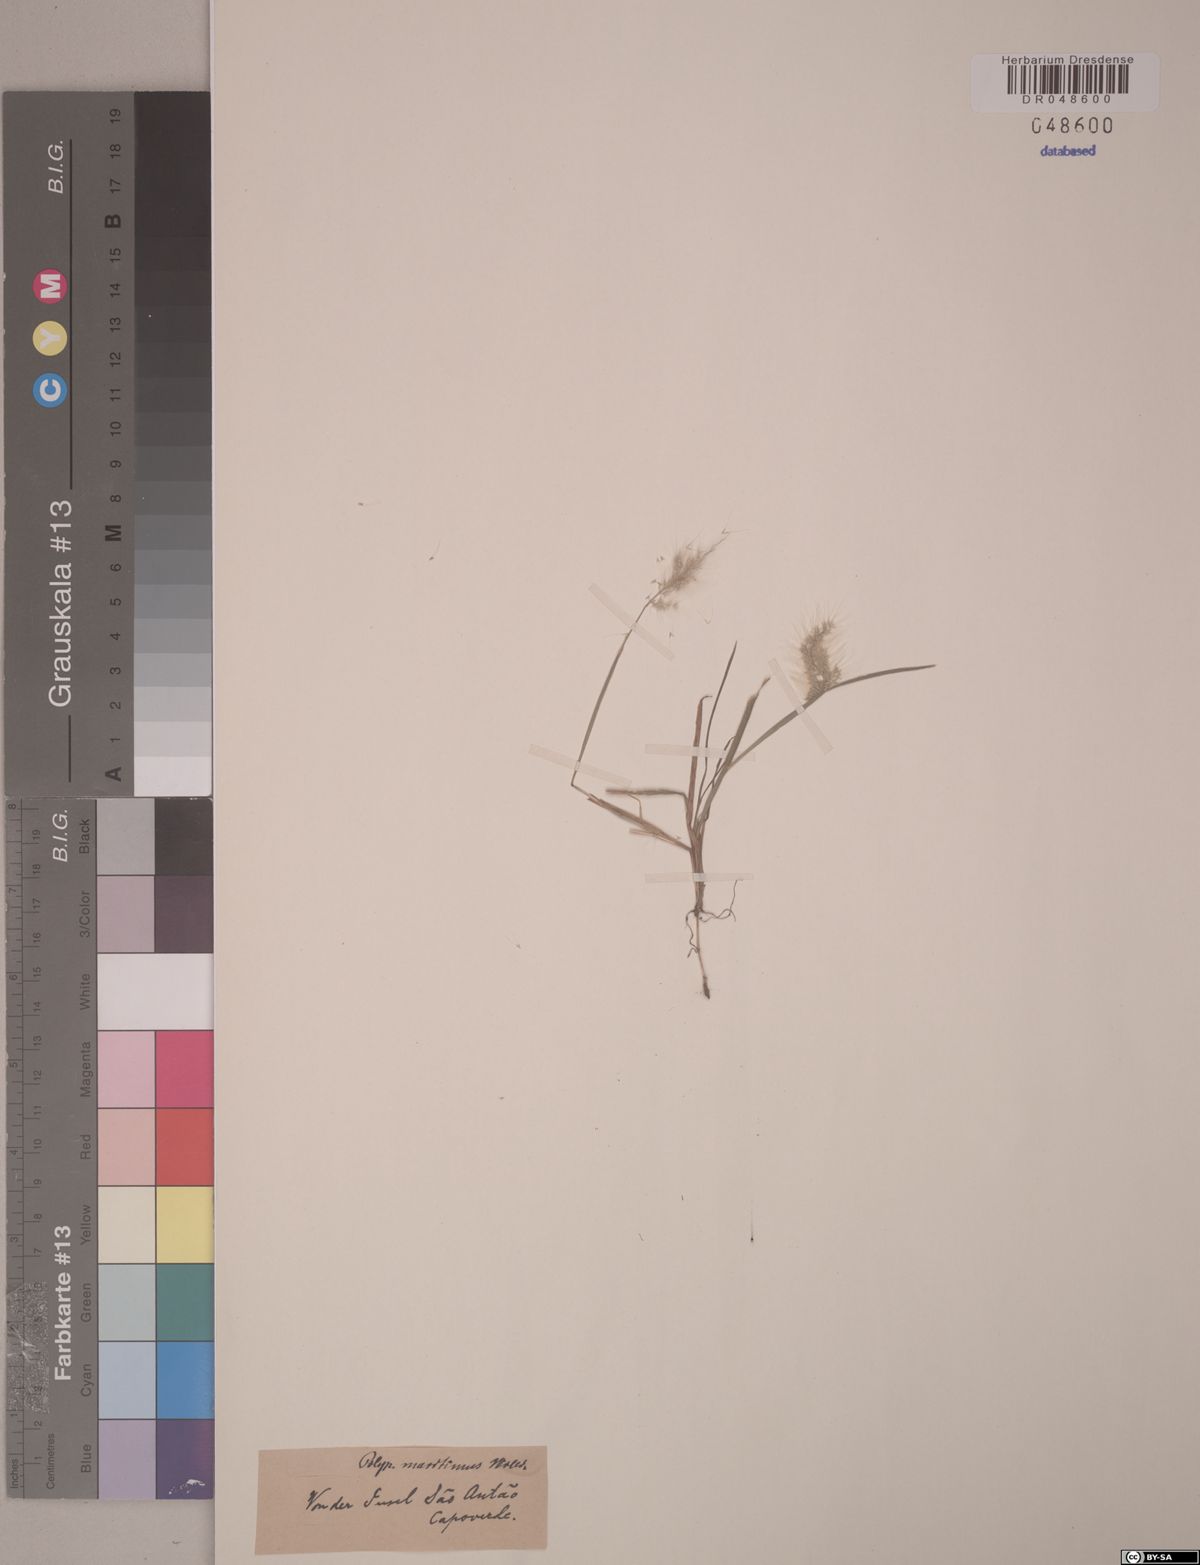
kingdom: Plantae
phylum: Tracheophyta
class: Liliopsida
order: Poales
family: Poaceae
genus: Polypogon
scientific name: Polypogon maritimus
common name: Mediterranean rabbitsfoot grass
